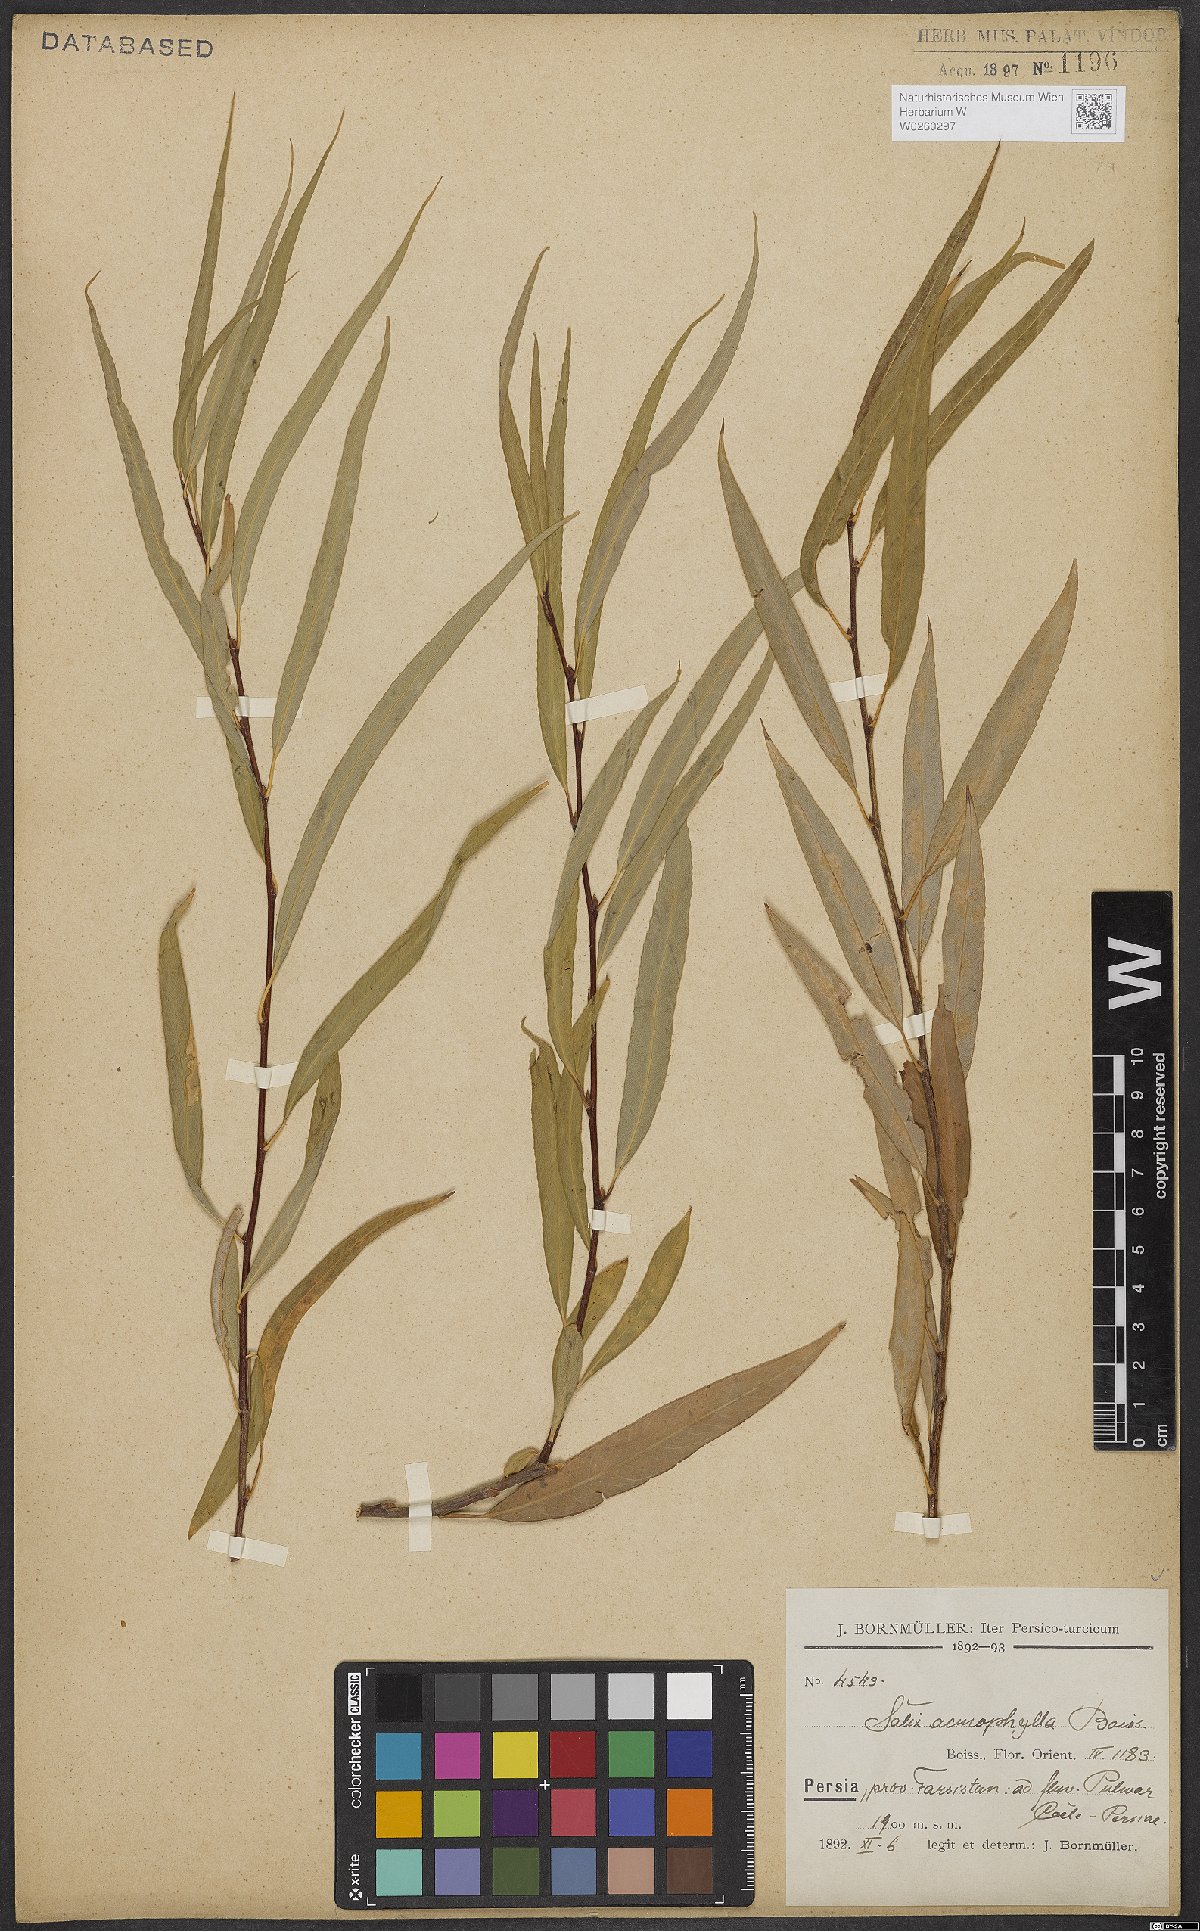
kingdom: Plantae
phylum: Tracheophyta
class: Magnoliopsida
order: Malpighiales
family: Salicaceae
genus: Salix
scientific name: Salix acmophylla
